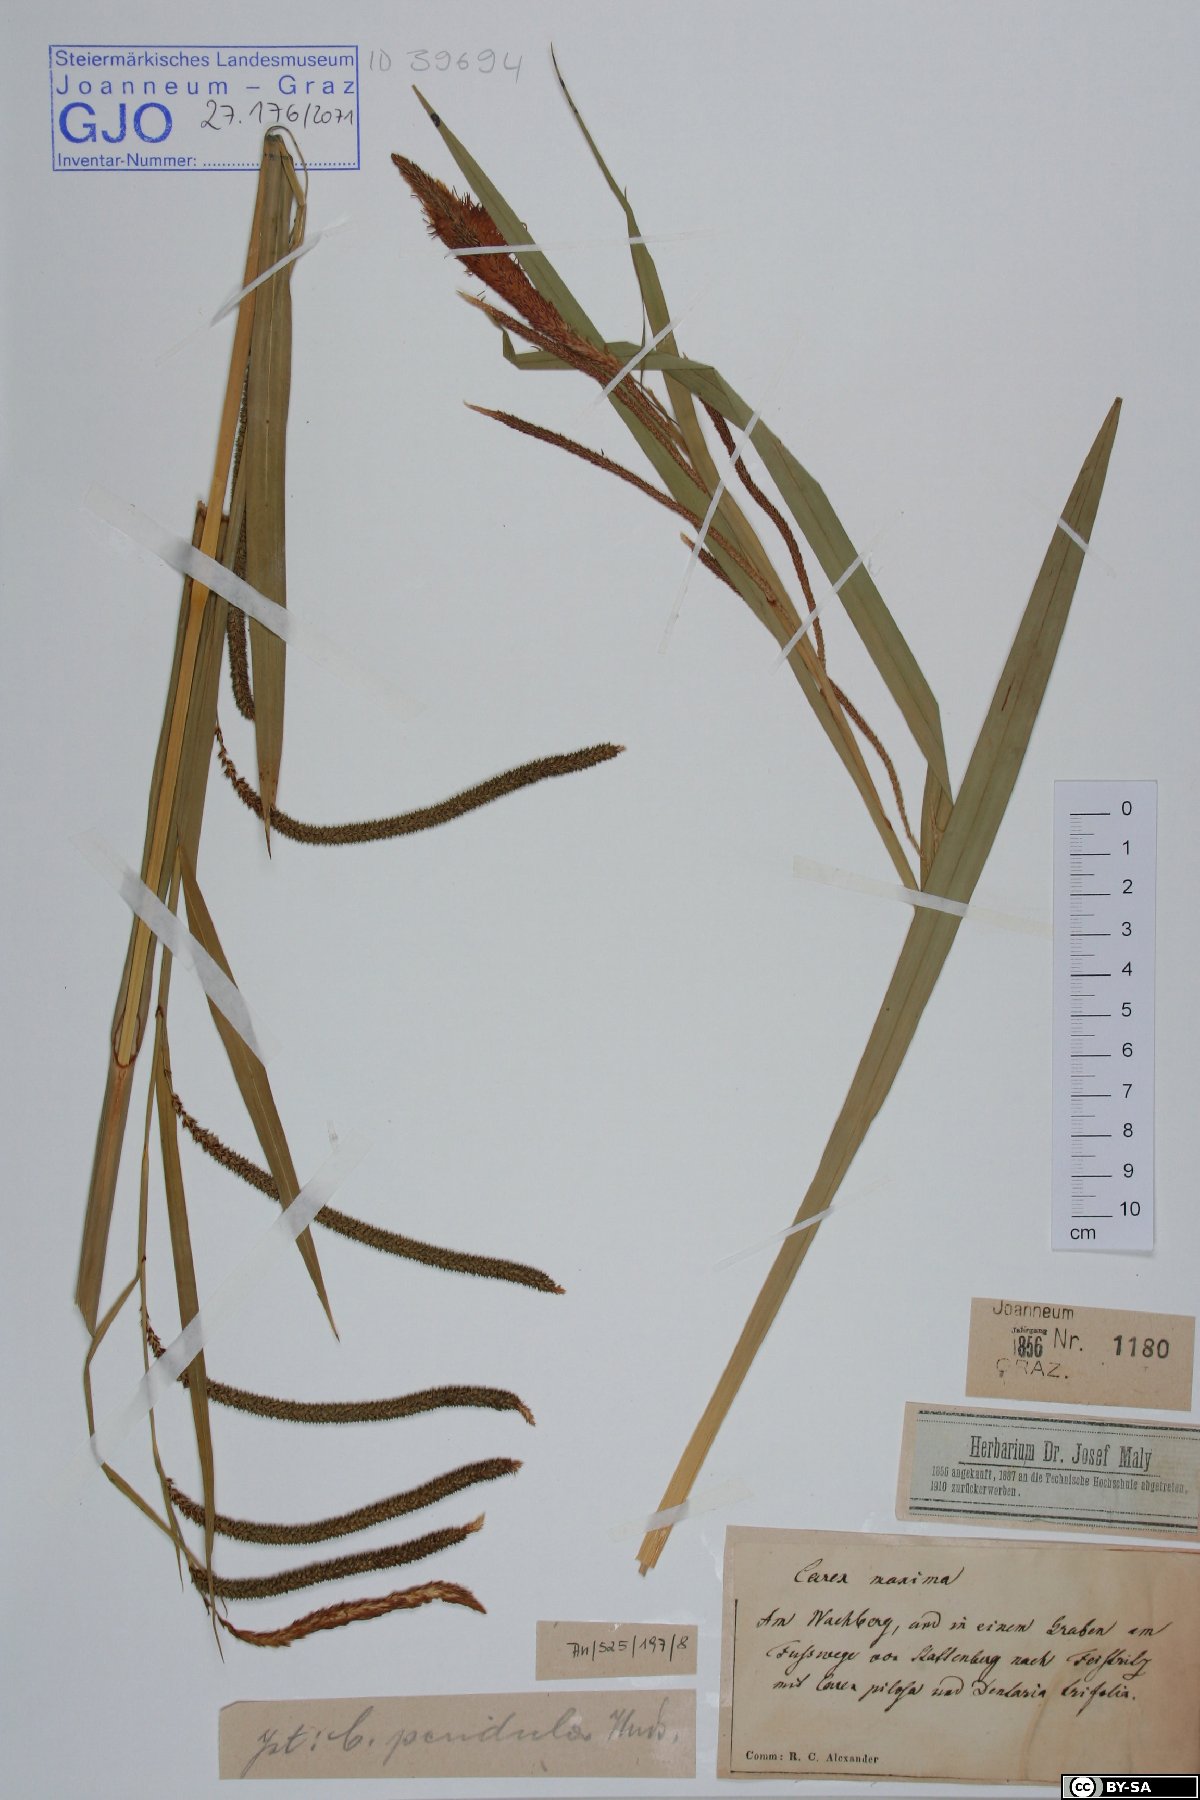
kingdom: Plantae
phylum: Tracheophyta
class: Liliopsida
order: Poales
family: Cyperaceae
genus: Carex
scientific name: Carex pendula
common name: Pendulous sedge
